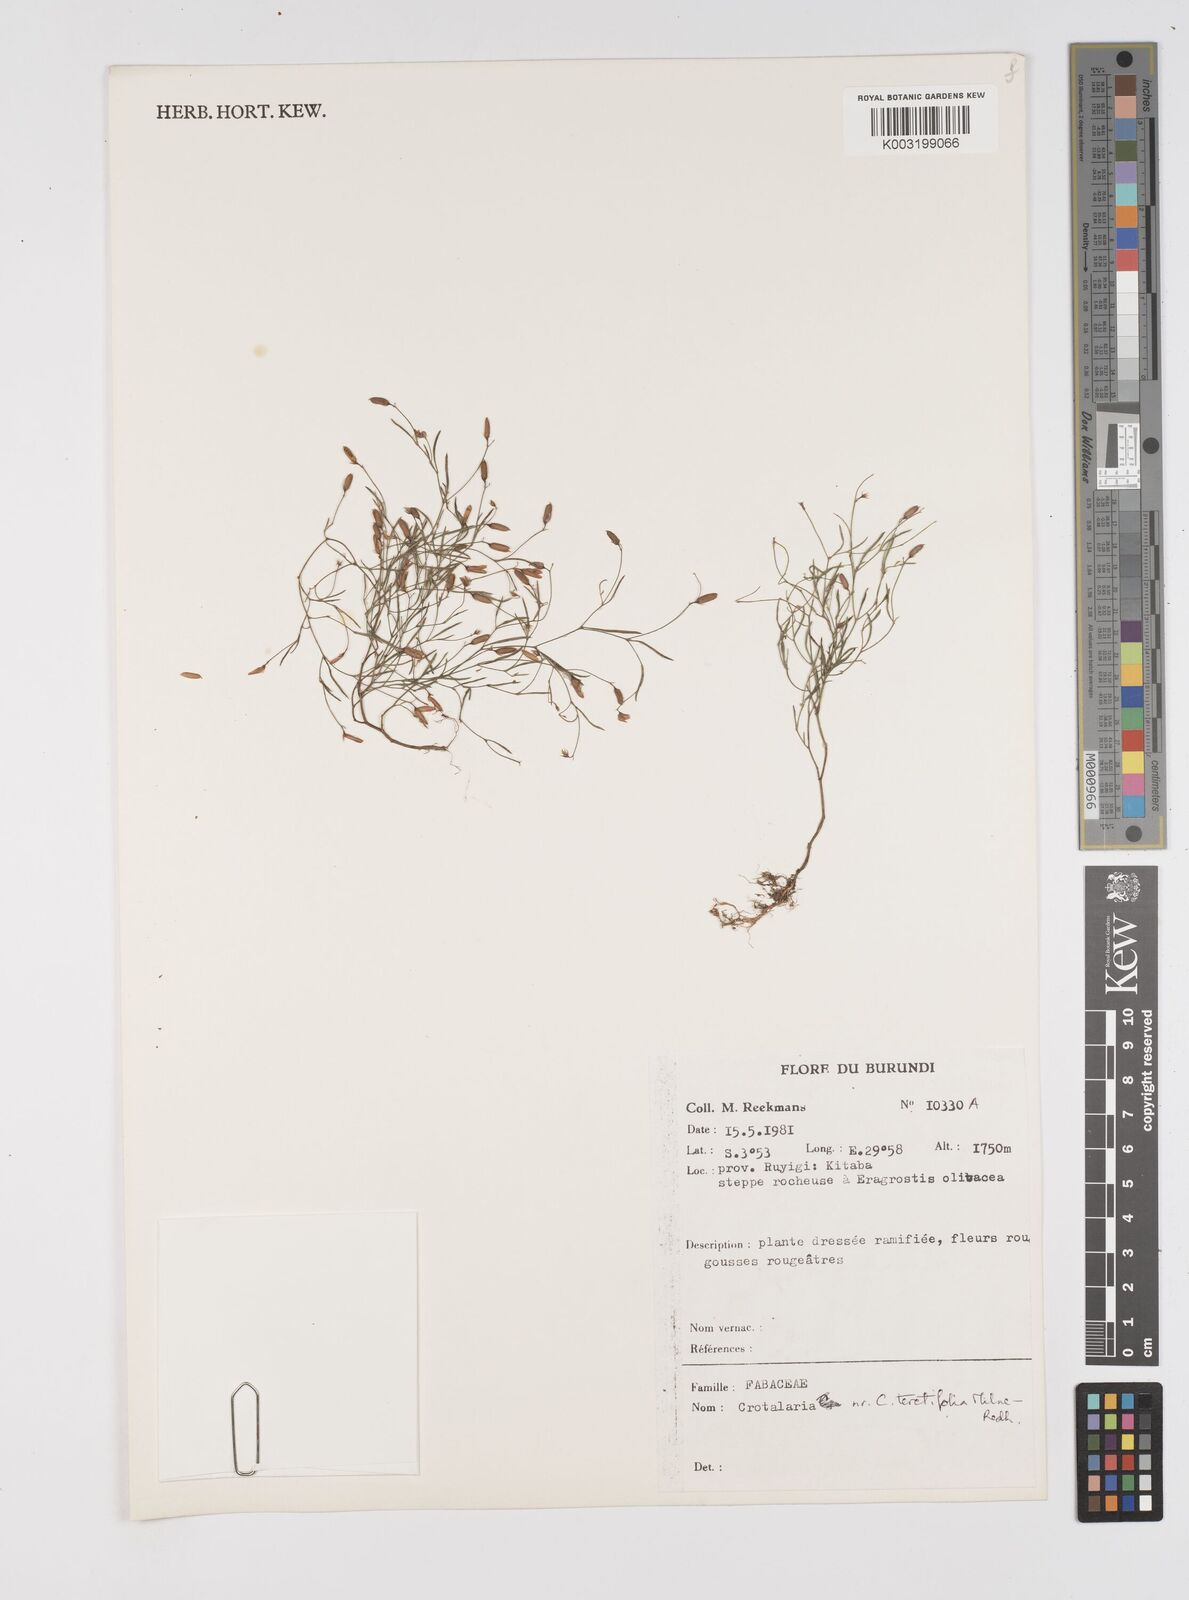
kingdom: Plantae
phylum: Tracheophyta
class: Magnoliopsida
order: Fabales
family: Fabaceae
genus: Crotalaria
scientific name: Crotalaria teretifolia
